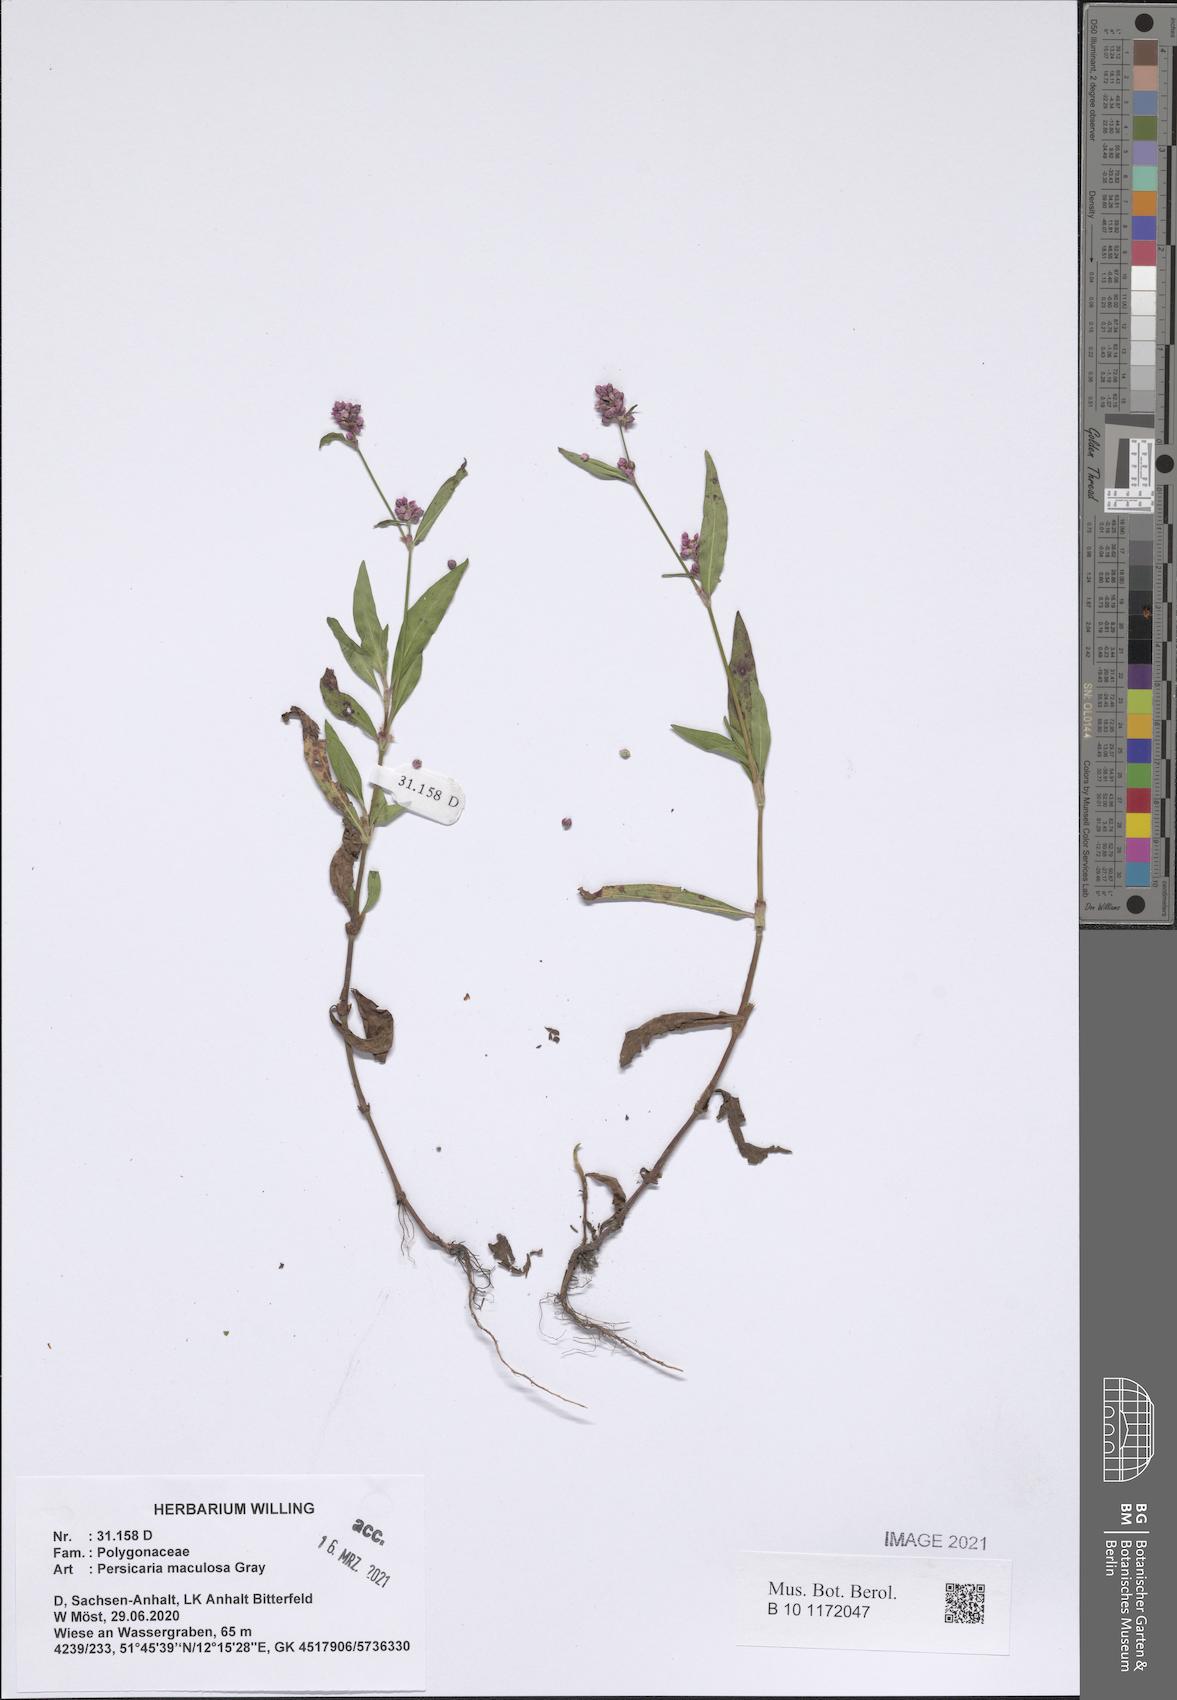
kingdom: Plantae
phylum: Tracheophyta
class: Magnoliopsida
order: Caryophyllales
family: Polygonaceae
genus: Persicaria
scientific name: Persicaria maculosa
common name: Redshank
